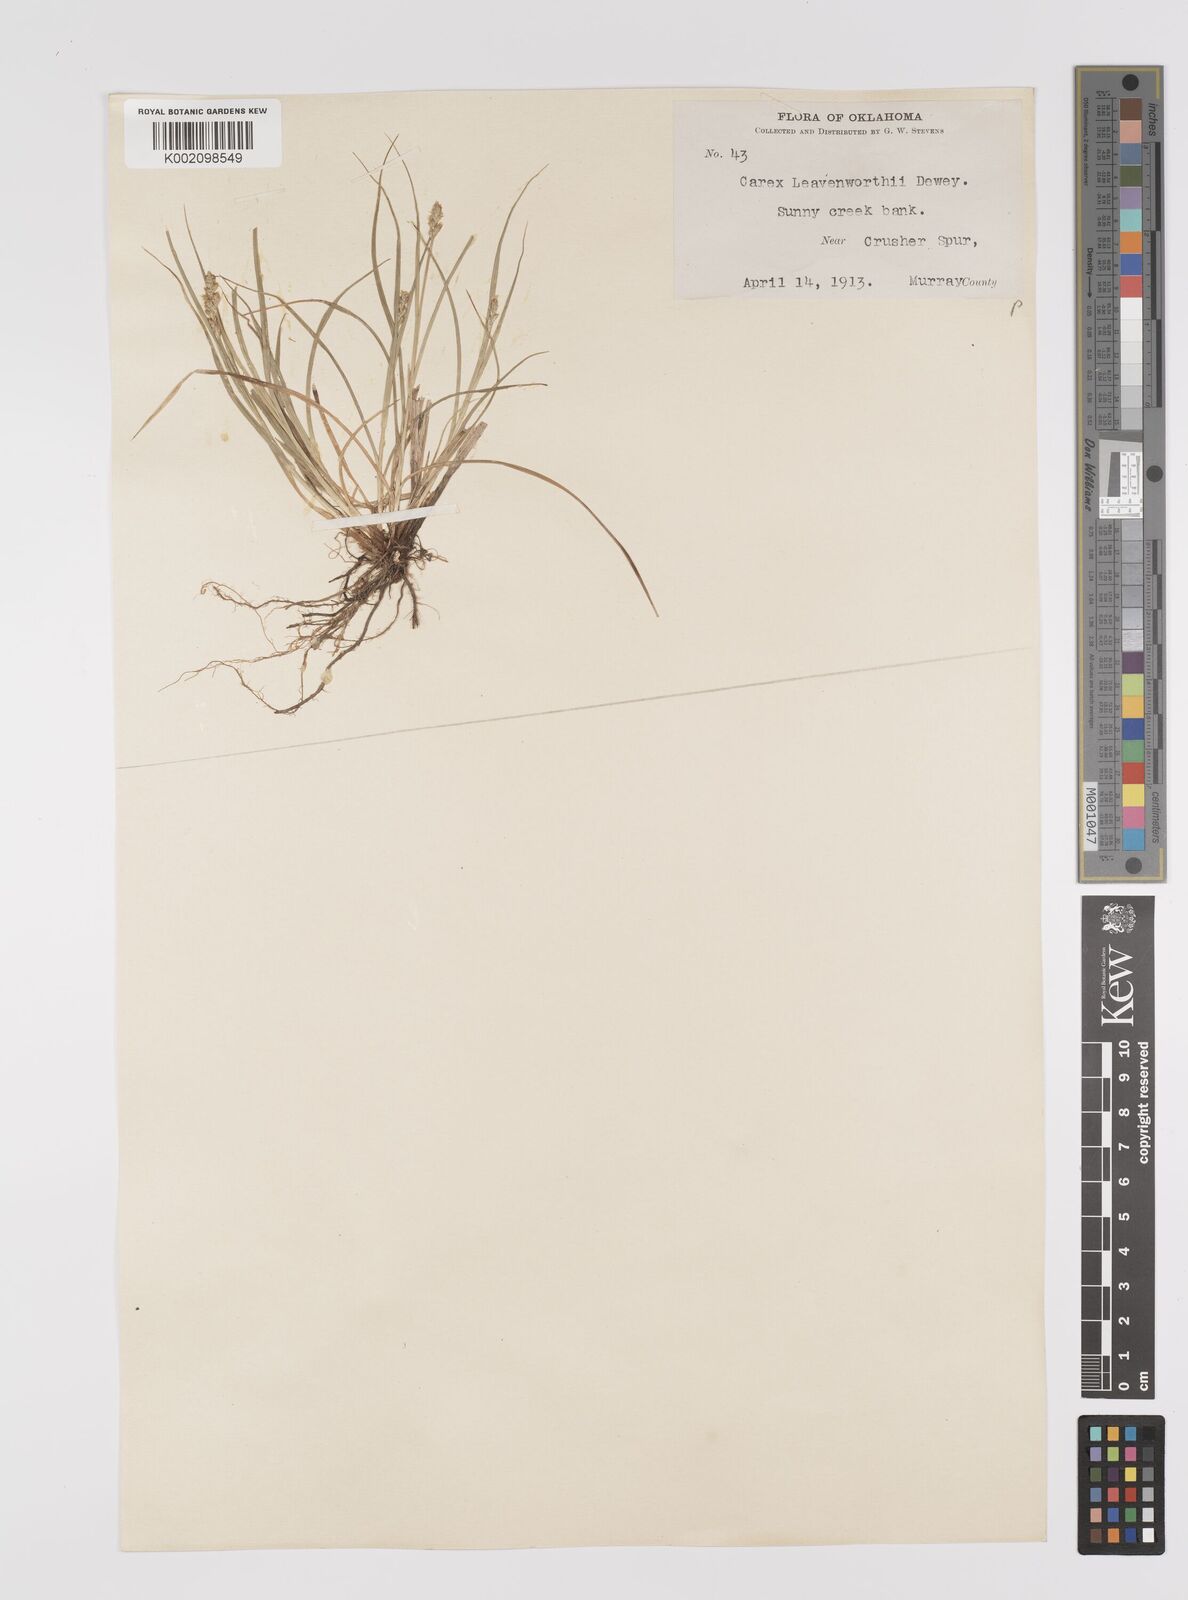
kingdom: Plantae
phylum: Tracheophyta
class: Liliopsida
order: Poales
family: Cyperaceae
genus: Carex
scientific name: Carex cephalophora
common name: Oval-headed sedge
